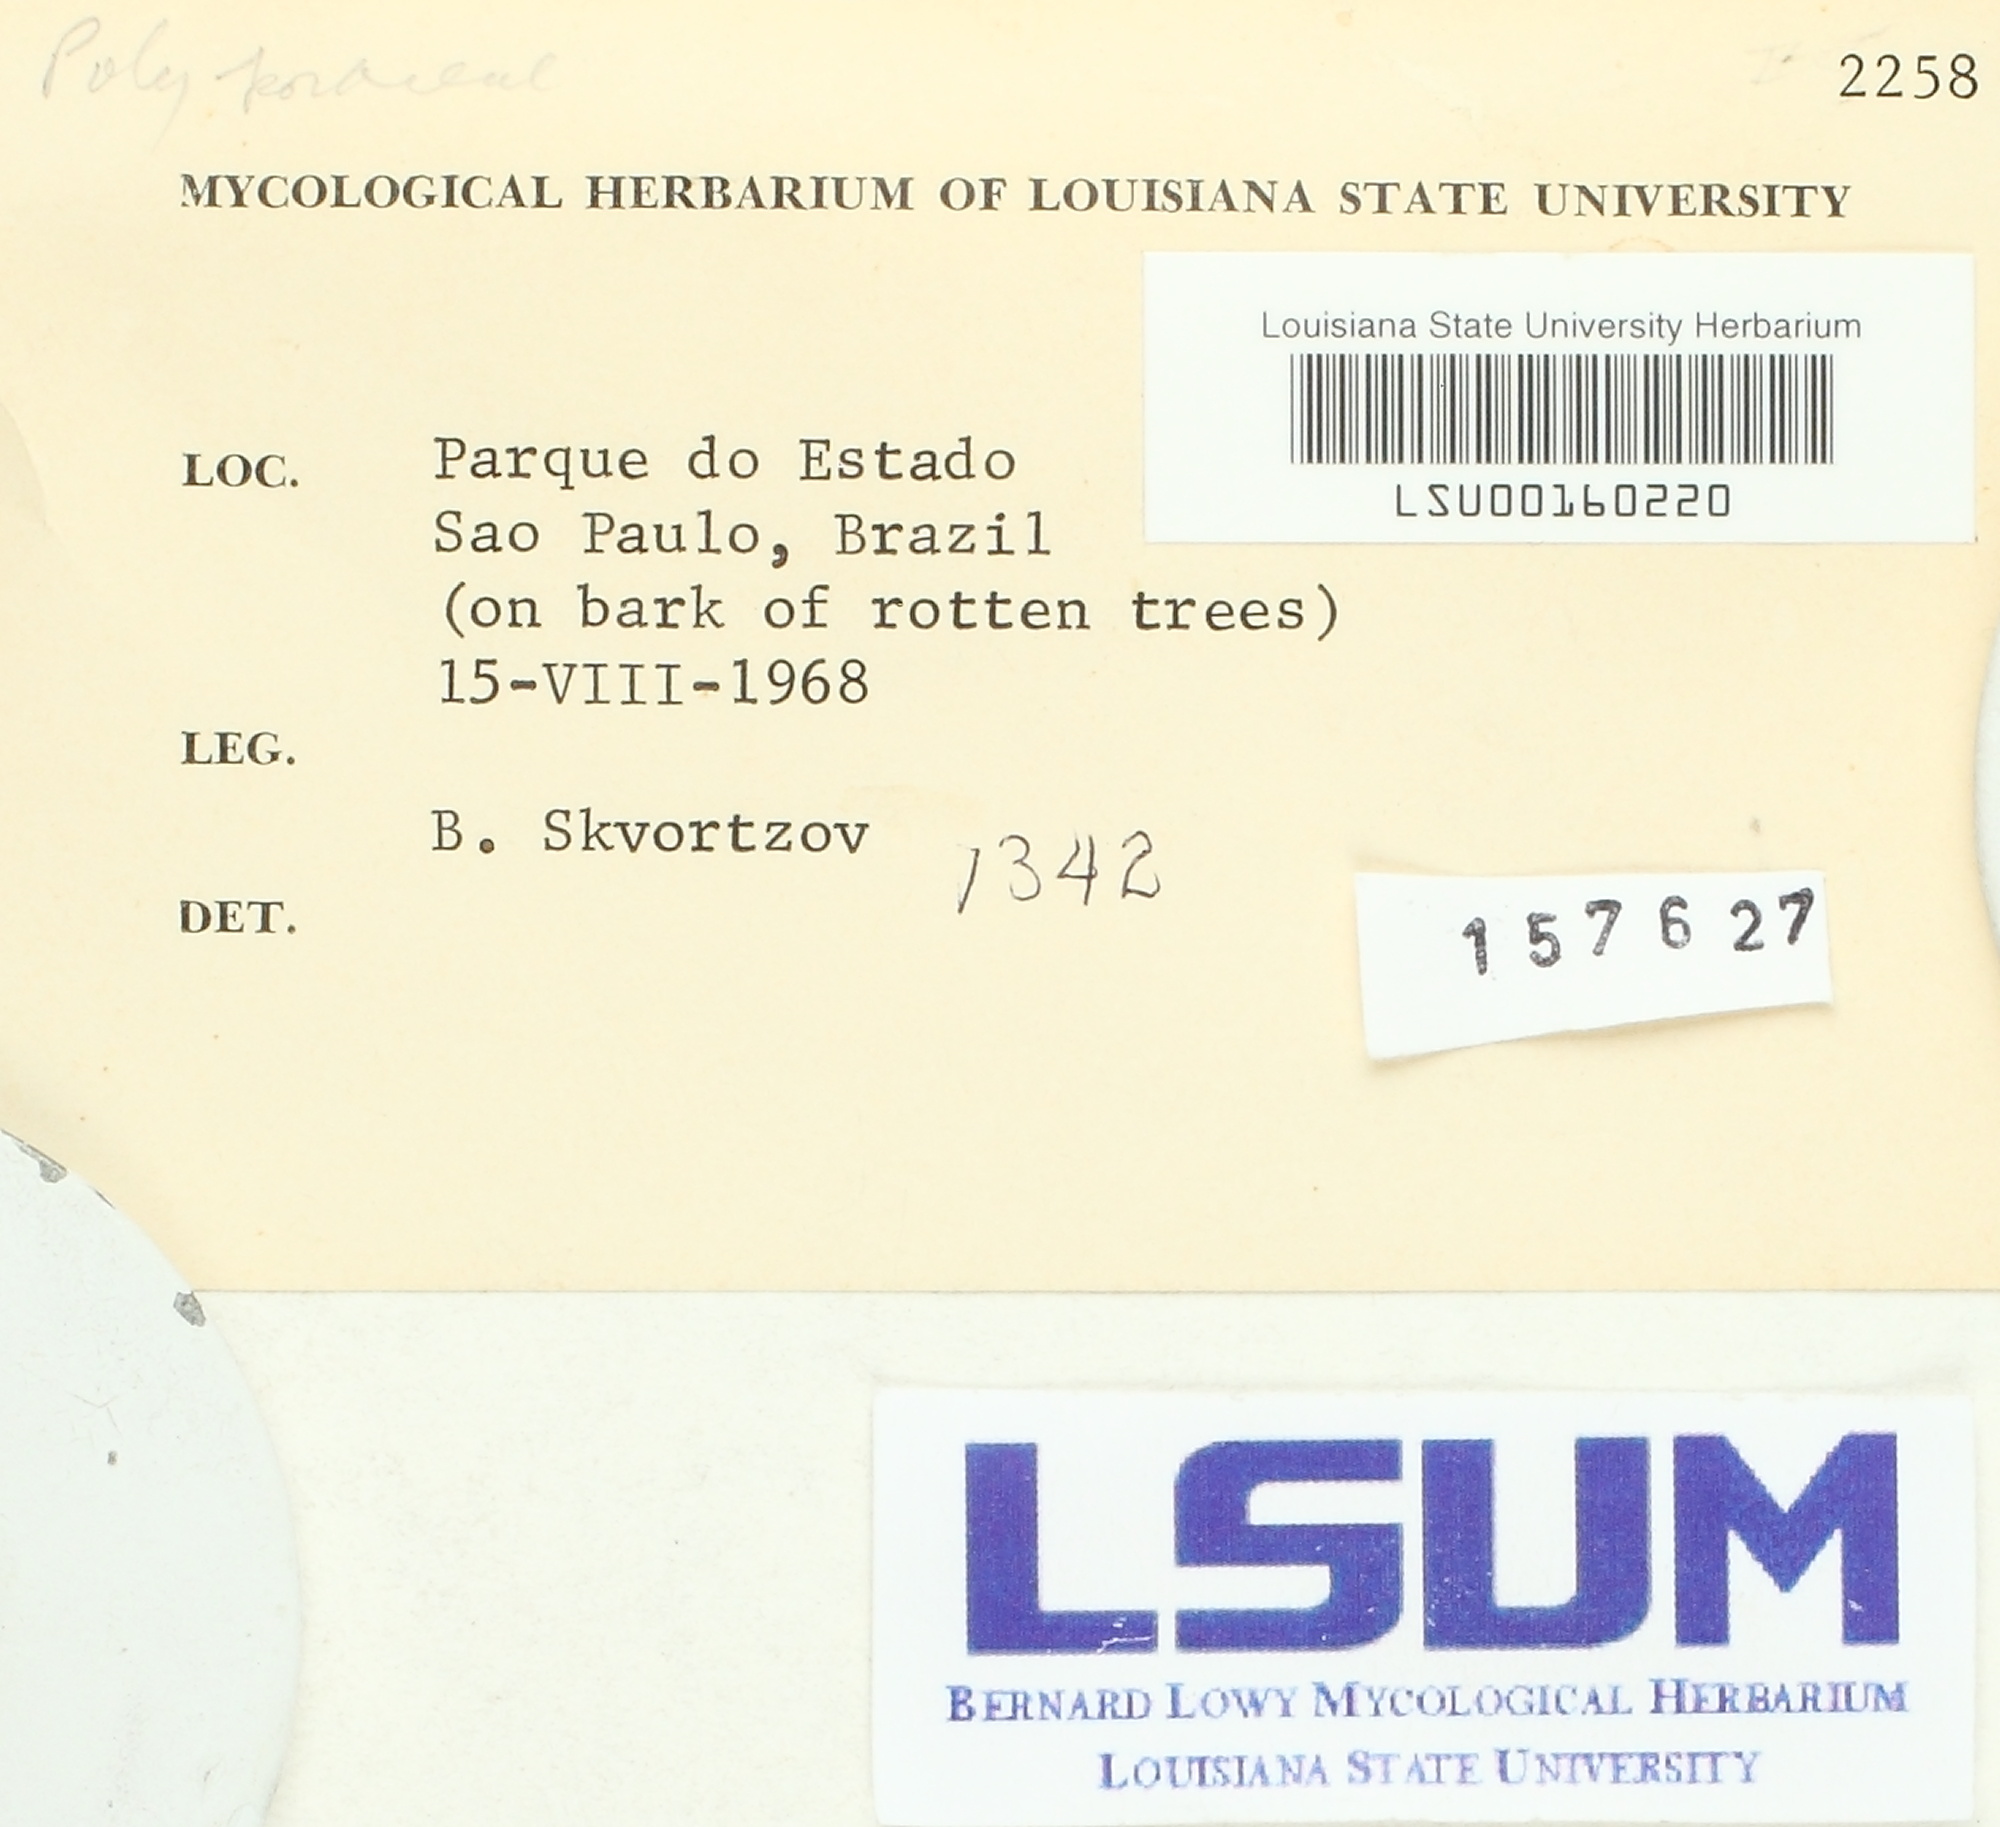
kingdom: Fungi
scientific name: Fungi
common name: Fungi
